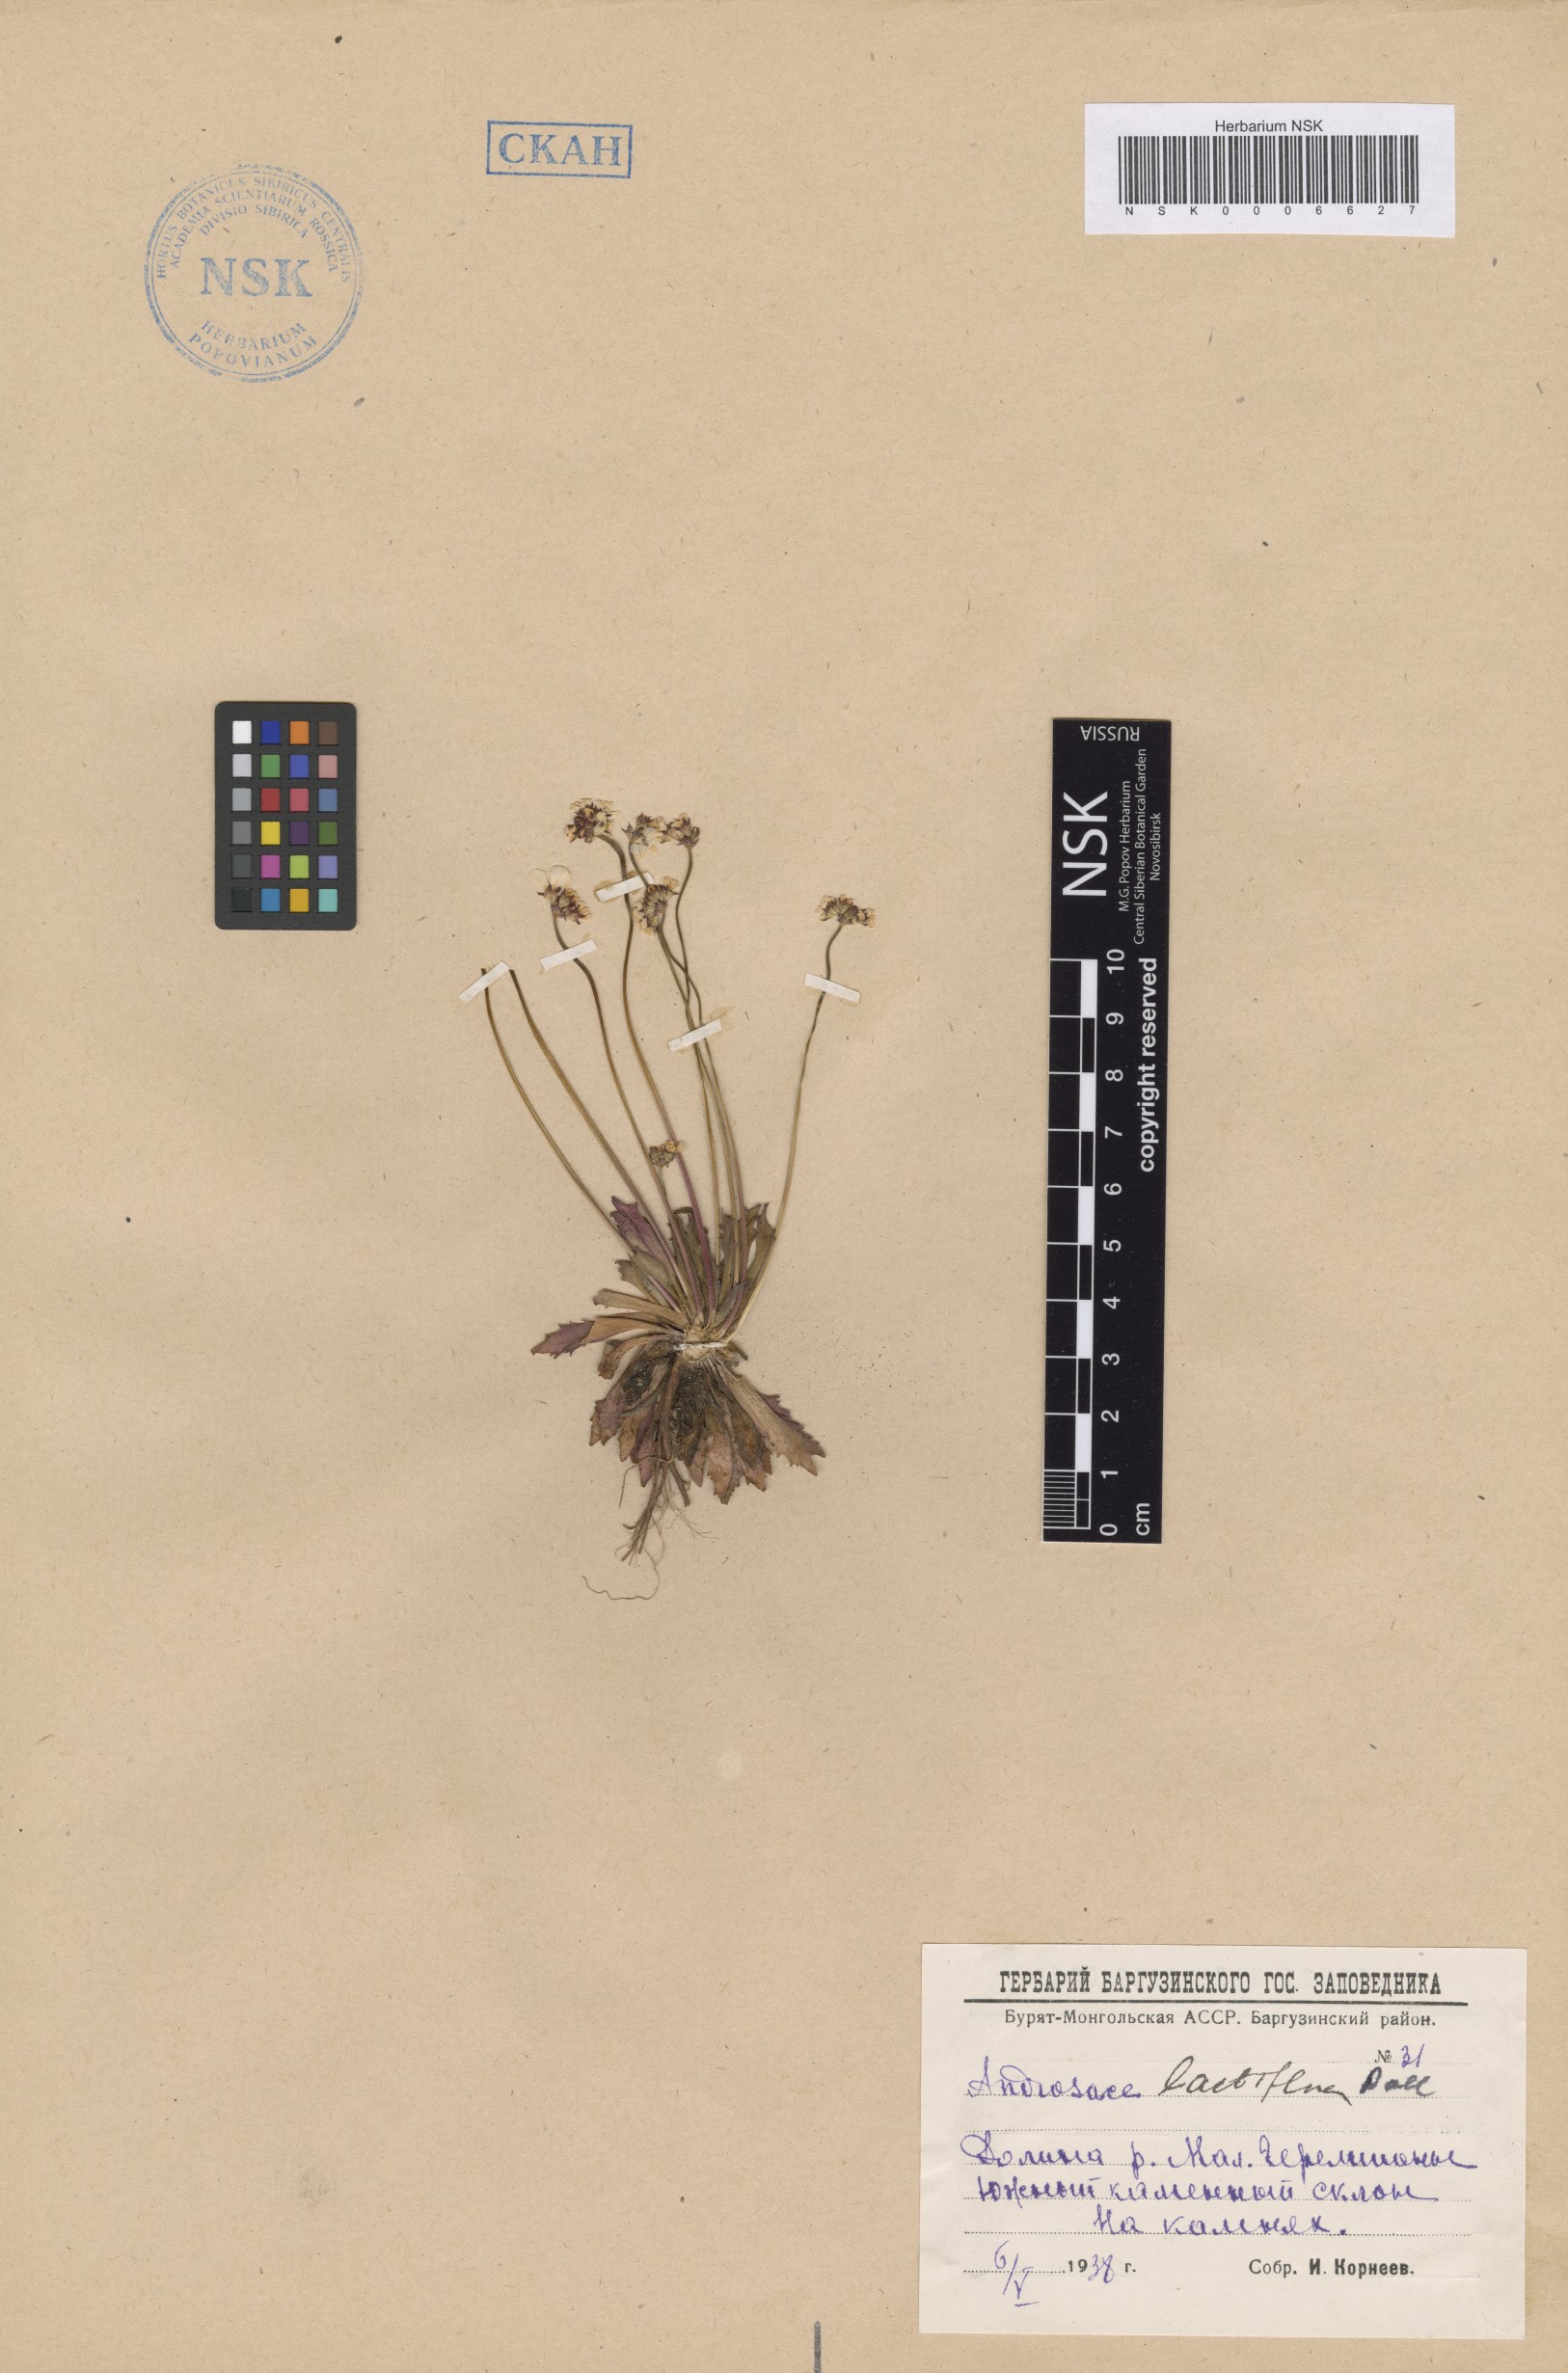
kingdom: Plantae
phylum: Tracheophyta
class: Magnoliopsida
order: Ericales
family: Primulaceae
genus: Androsace
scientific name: Androsace lactiflora
